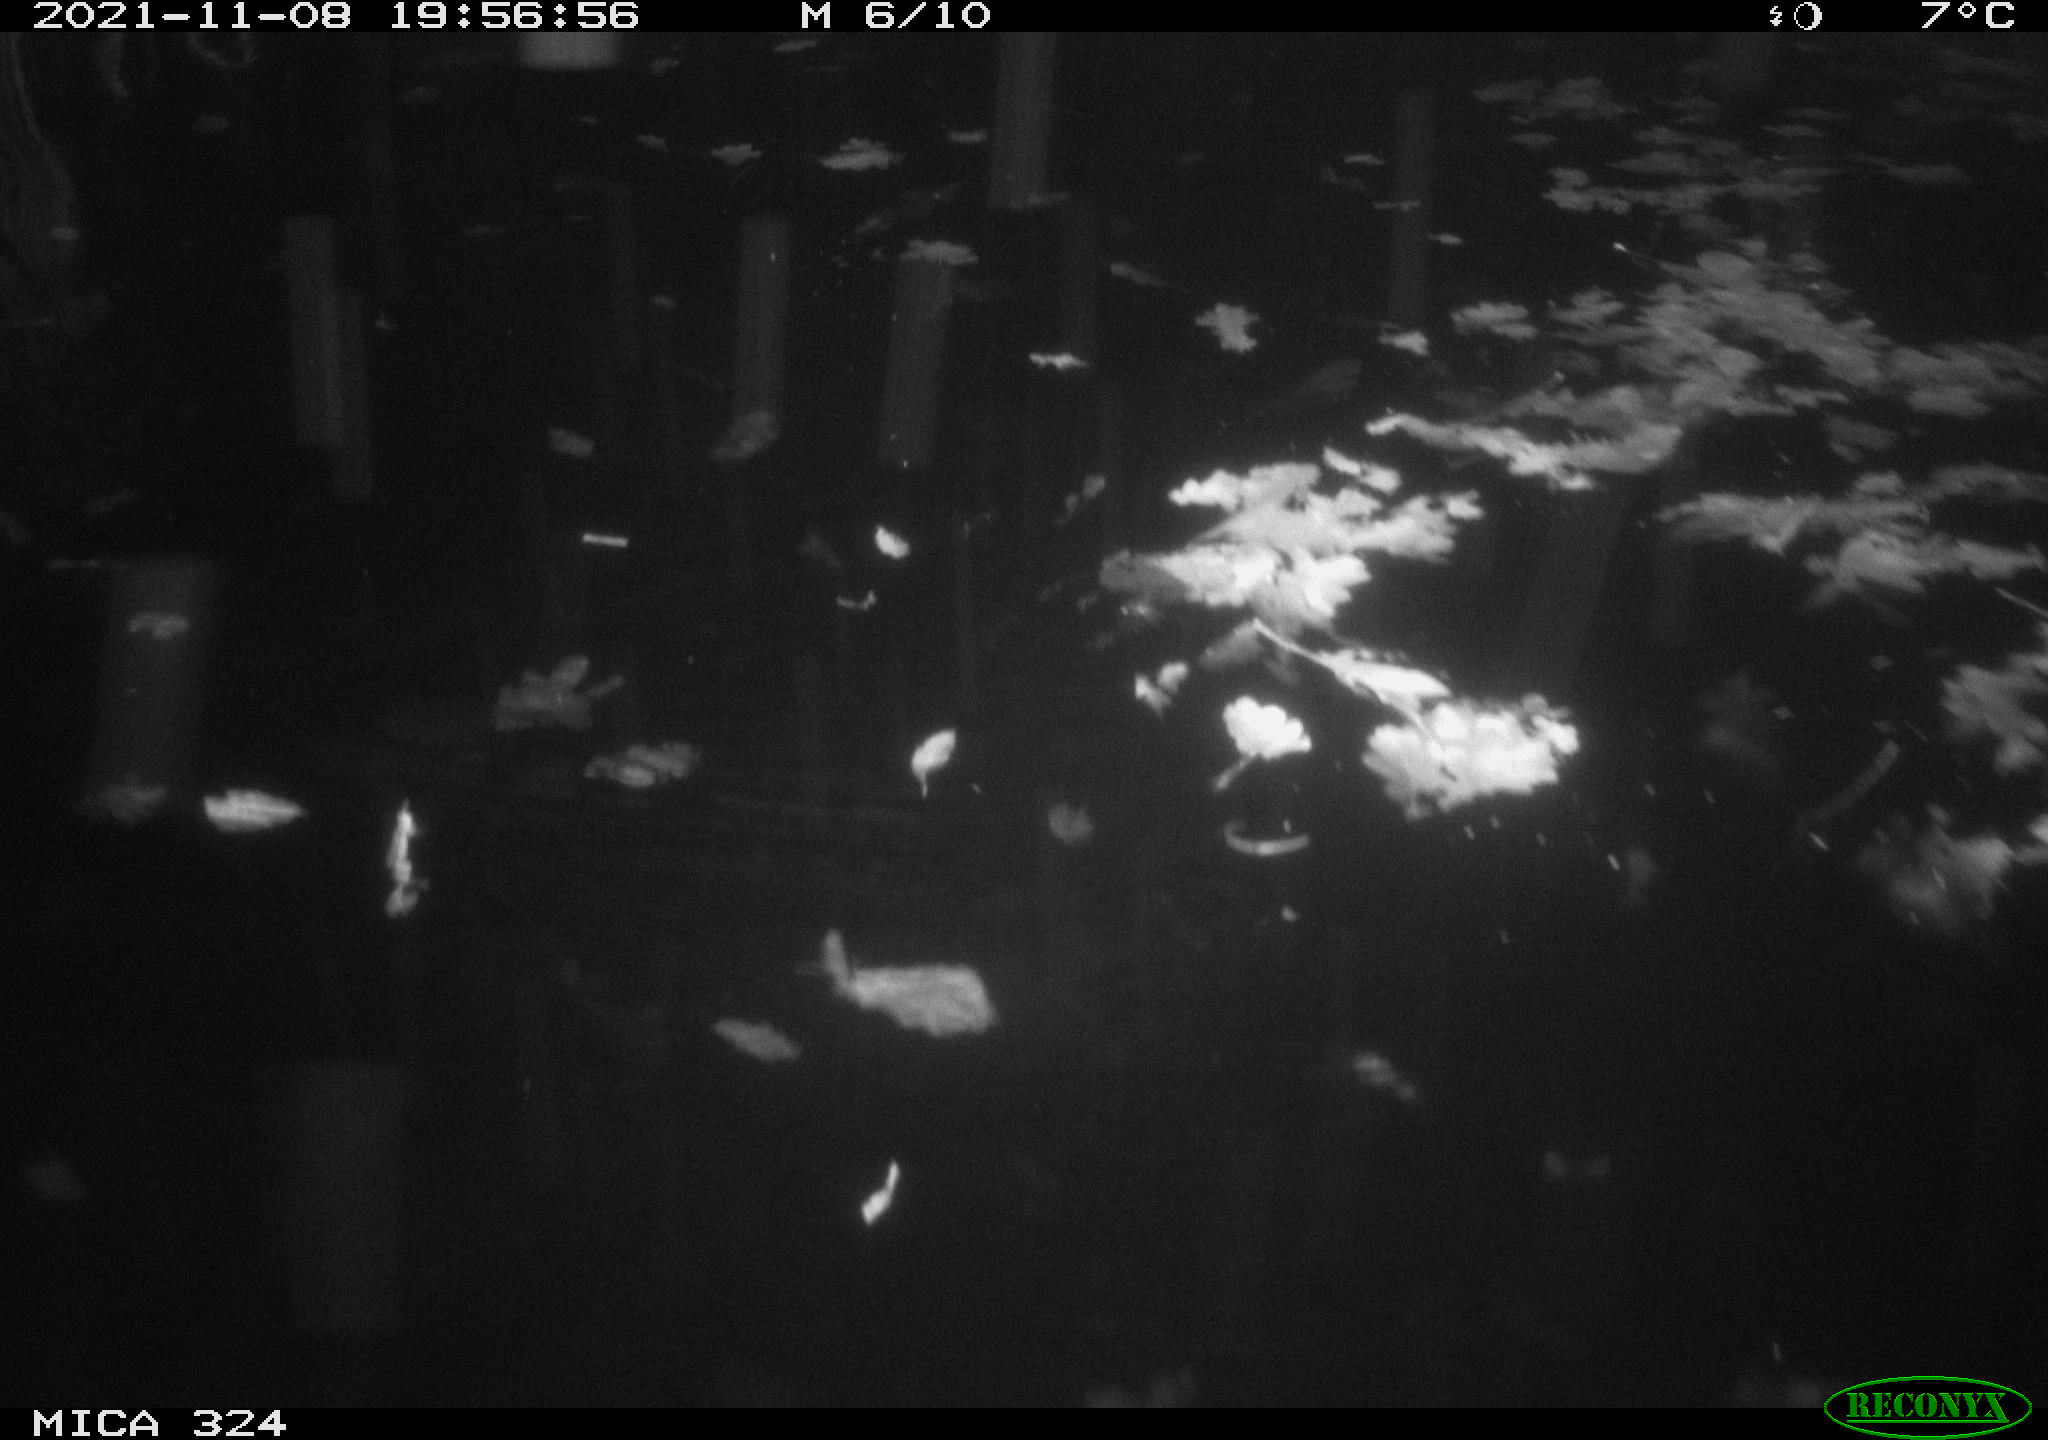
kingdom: Animalia
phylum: Chordata
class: Mammalia
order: Rodentia
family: Cricetidae
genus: Ondatra
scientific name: Ondatra zibethicus
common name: Muskrat
